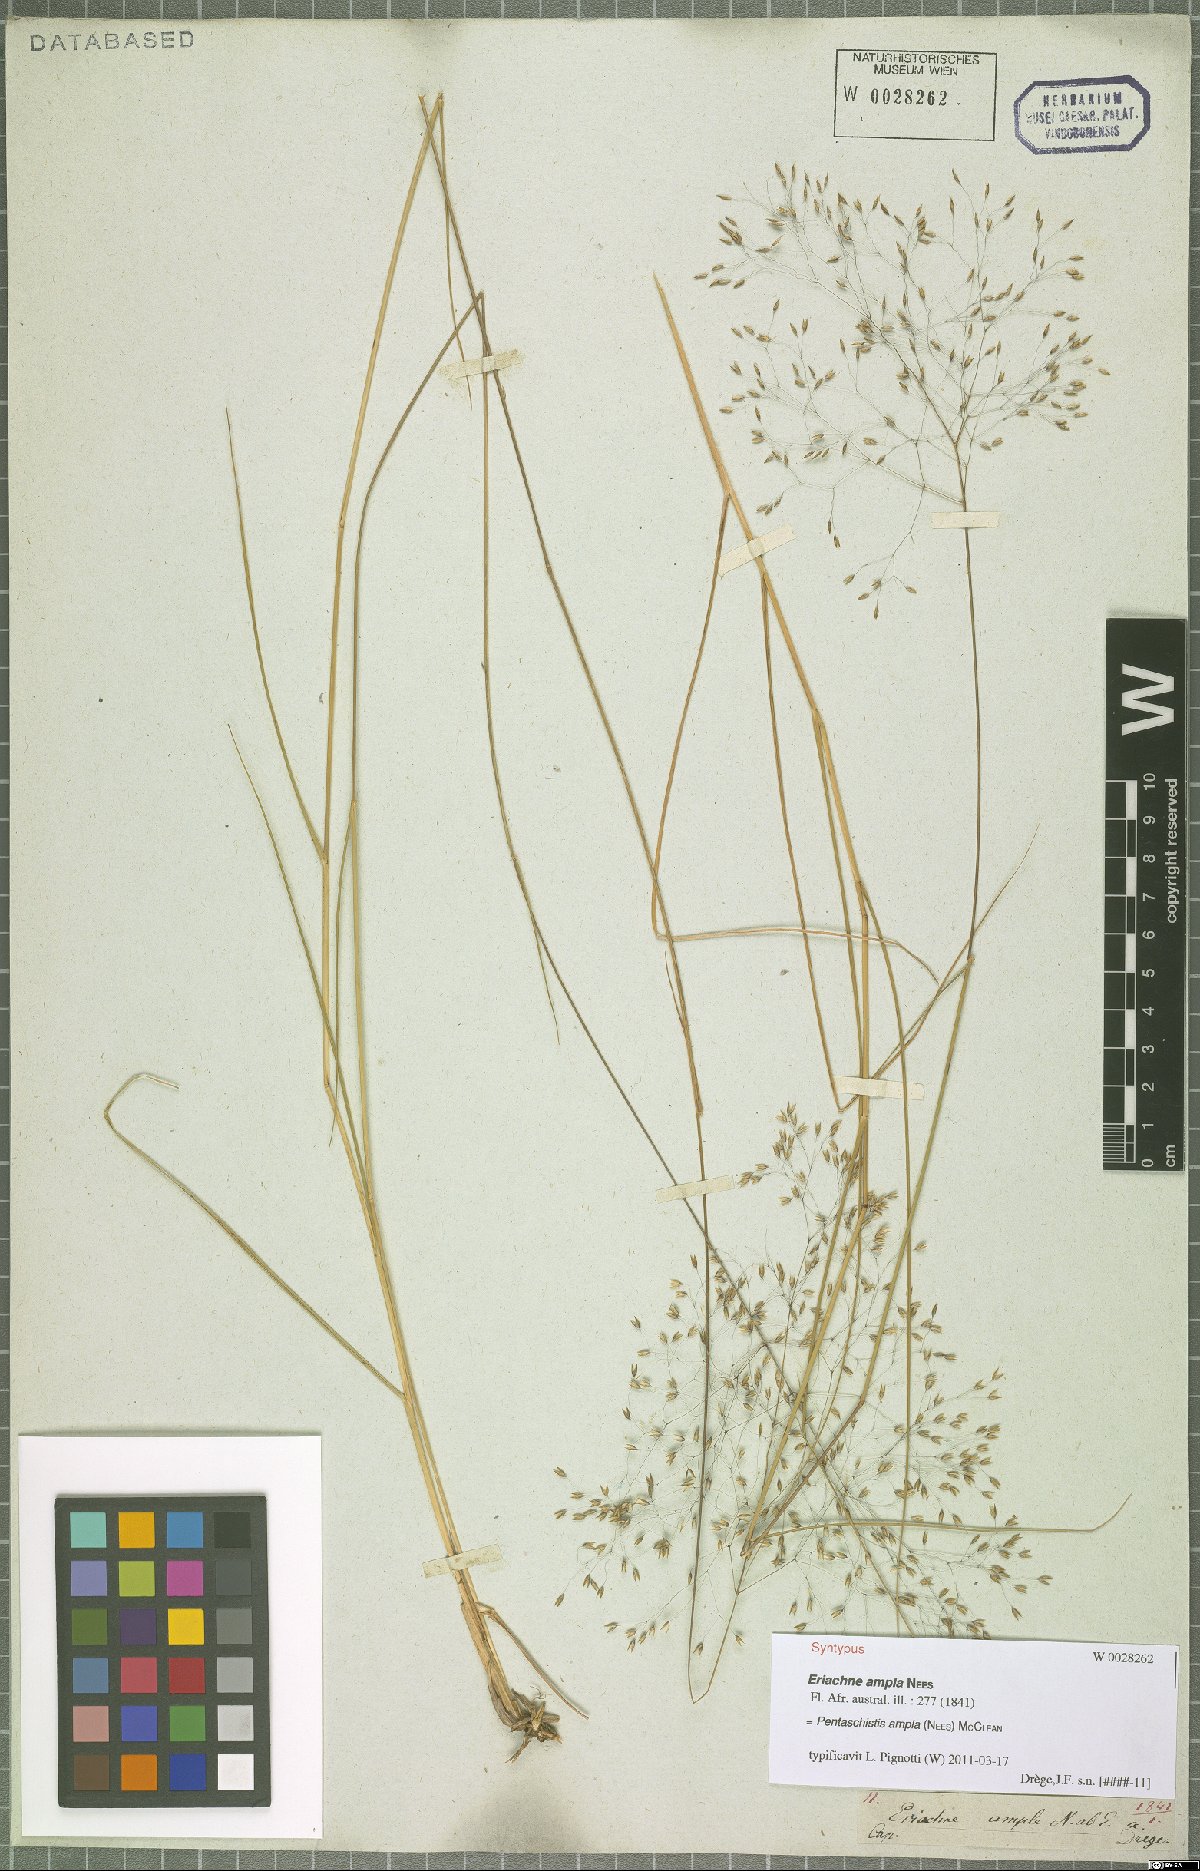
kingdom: Plantae
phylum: Tracheophyta
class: Liliopsida
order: Poales
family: Poaceae
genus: Pentameris
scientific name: Pentameris ampla
